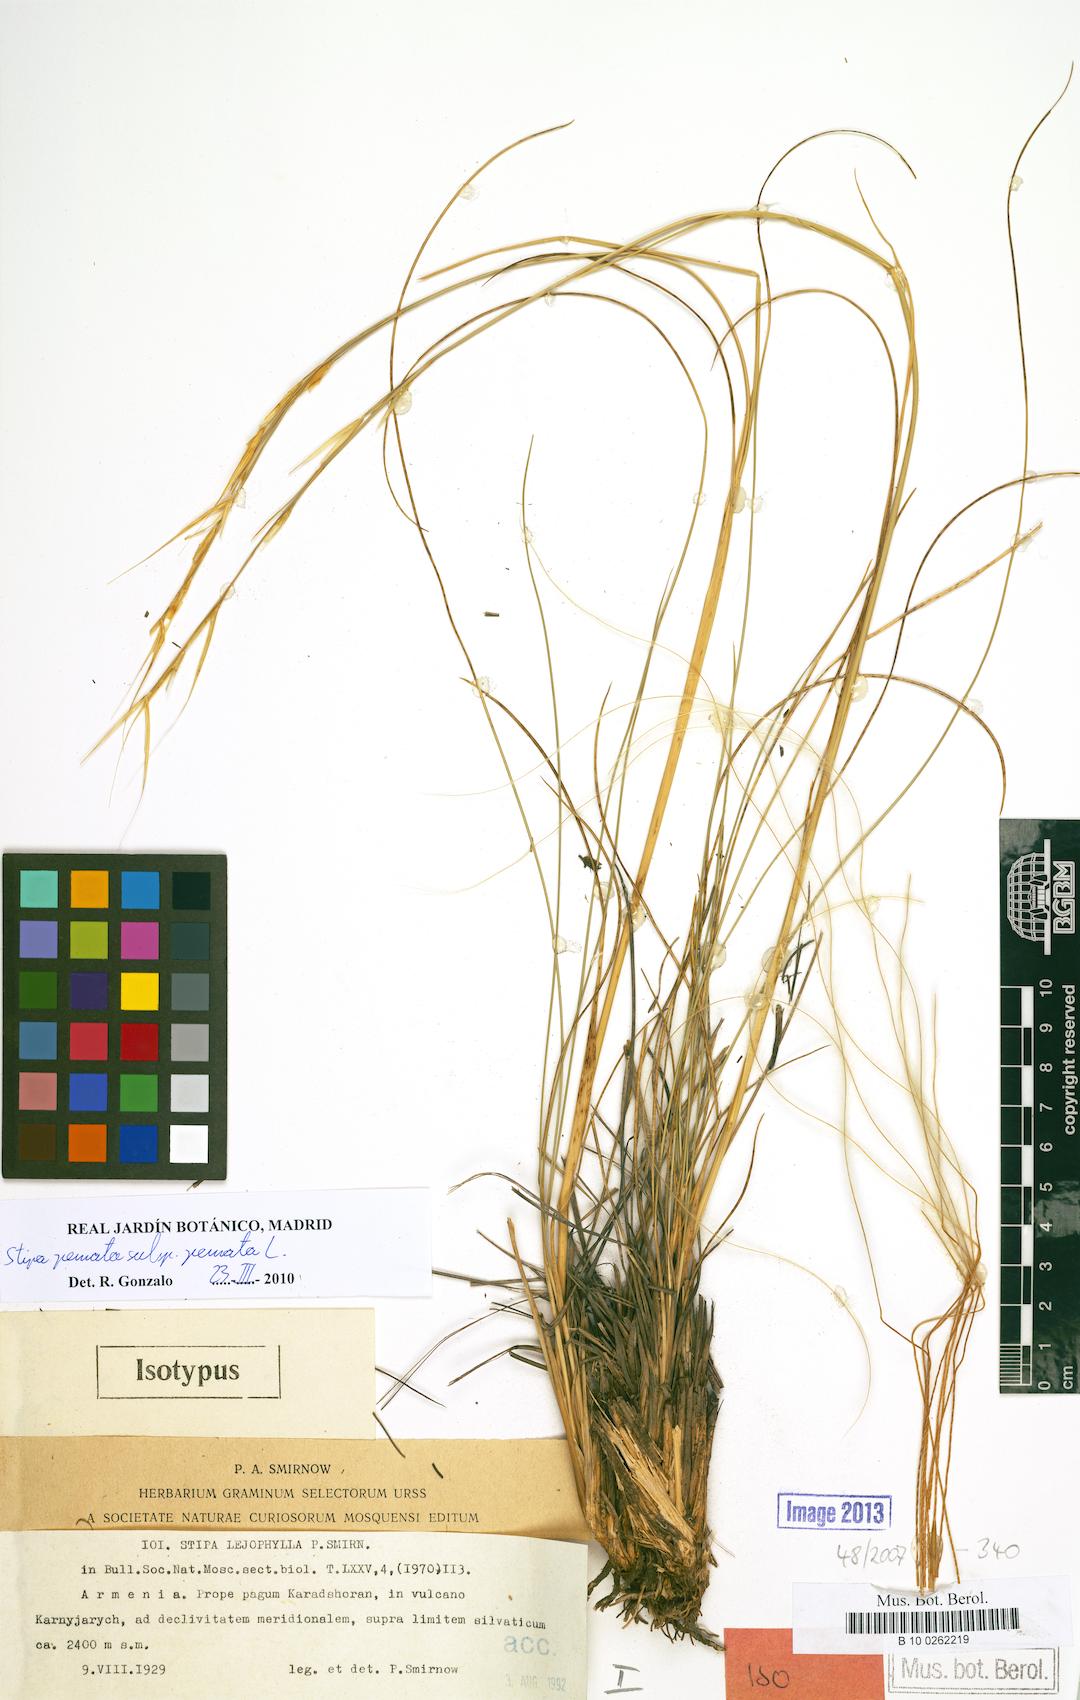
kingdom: Plantae
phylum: Tracheophyta
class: Liliopsida
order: Poales
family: Poaceae
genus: Stipa
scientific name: Stipa pennata
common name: European feather grass
